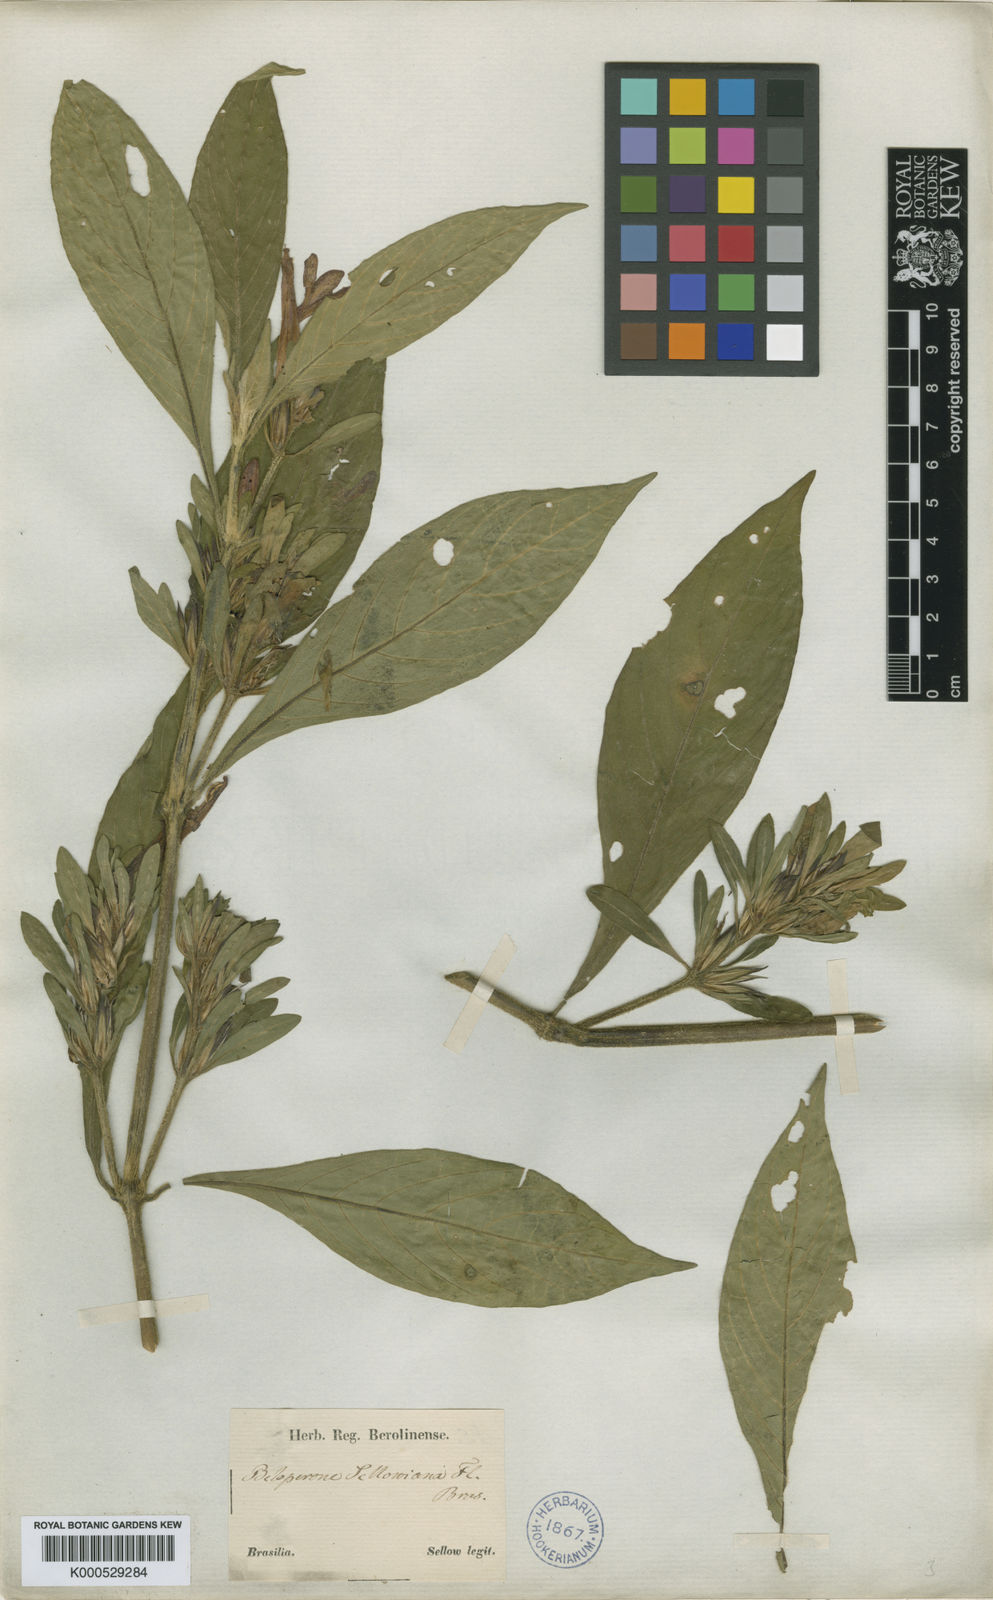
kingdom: Plantae
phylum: Tracheophyta
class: Magnoliopsida
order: Lamiales
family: Acanthaceae
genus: Justicia
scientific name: Justicia sellowiana
